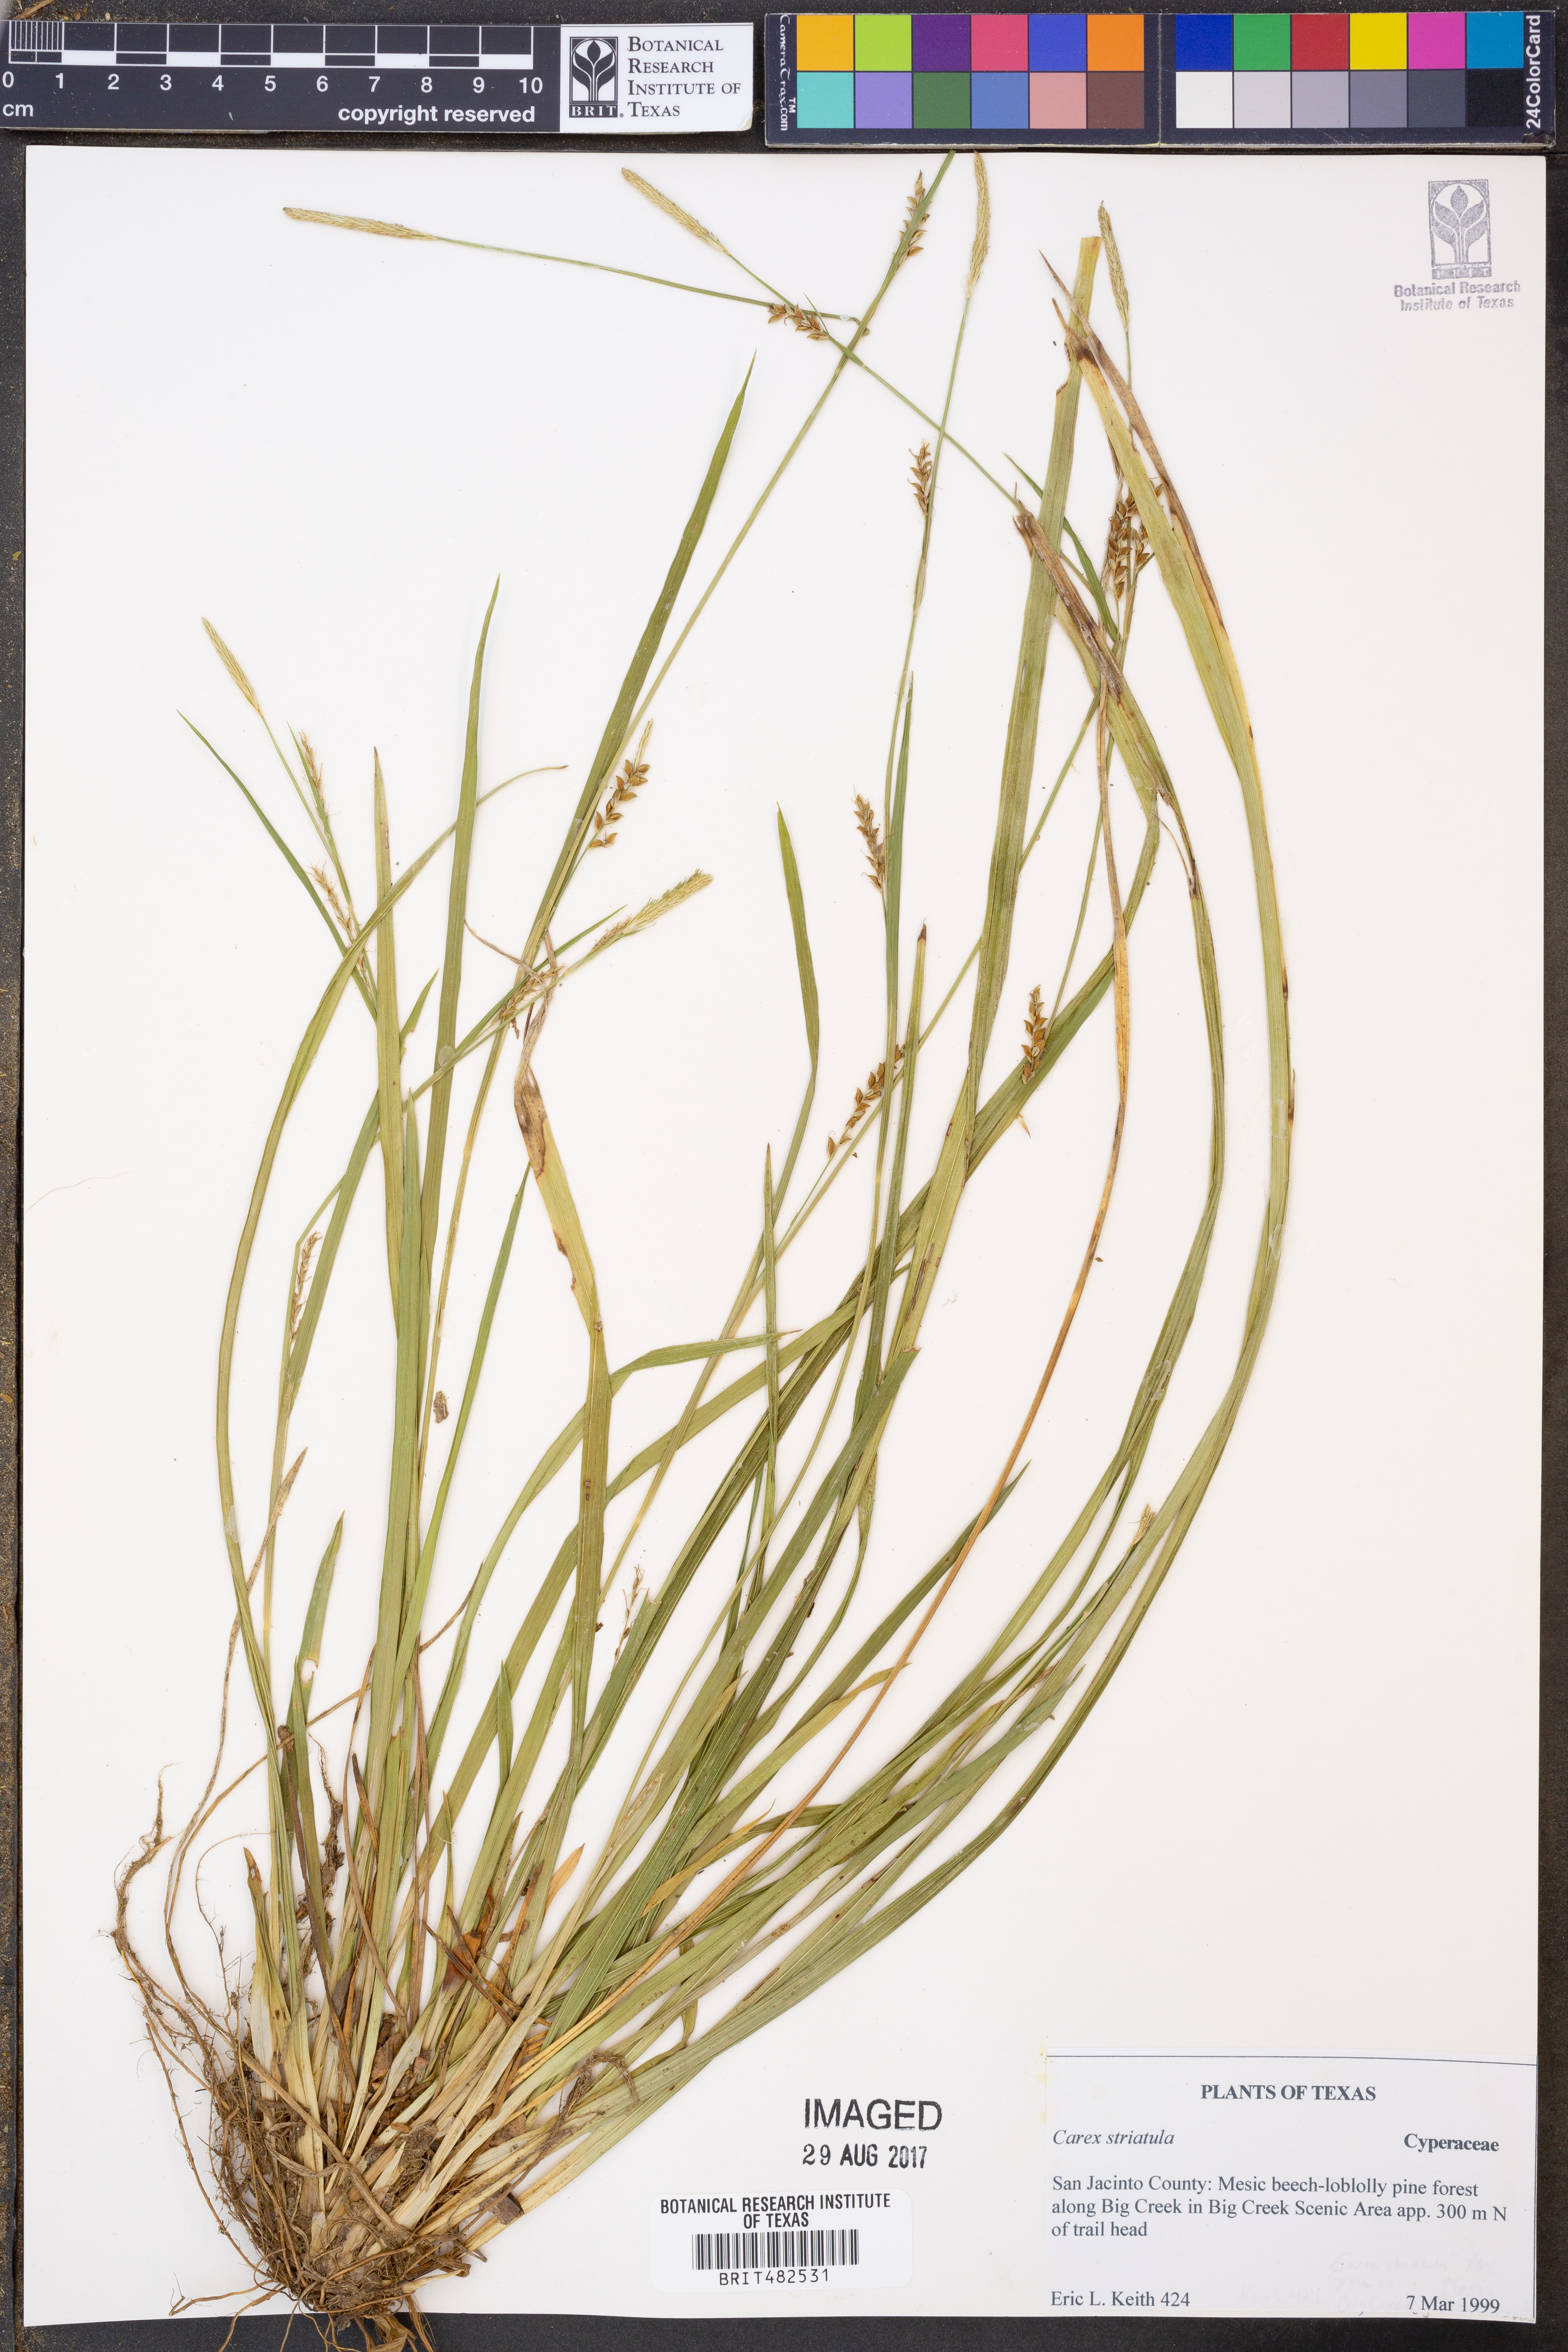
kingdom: Plantae
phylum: Tracheophyta
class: Liliopsida
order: Poales
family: Cyperaceae
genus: Carex
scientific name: Carex striatula
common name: Lined sedge
